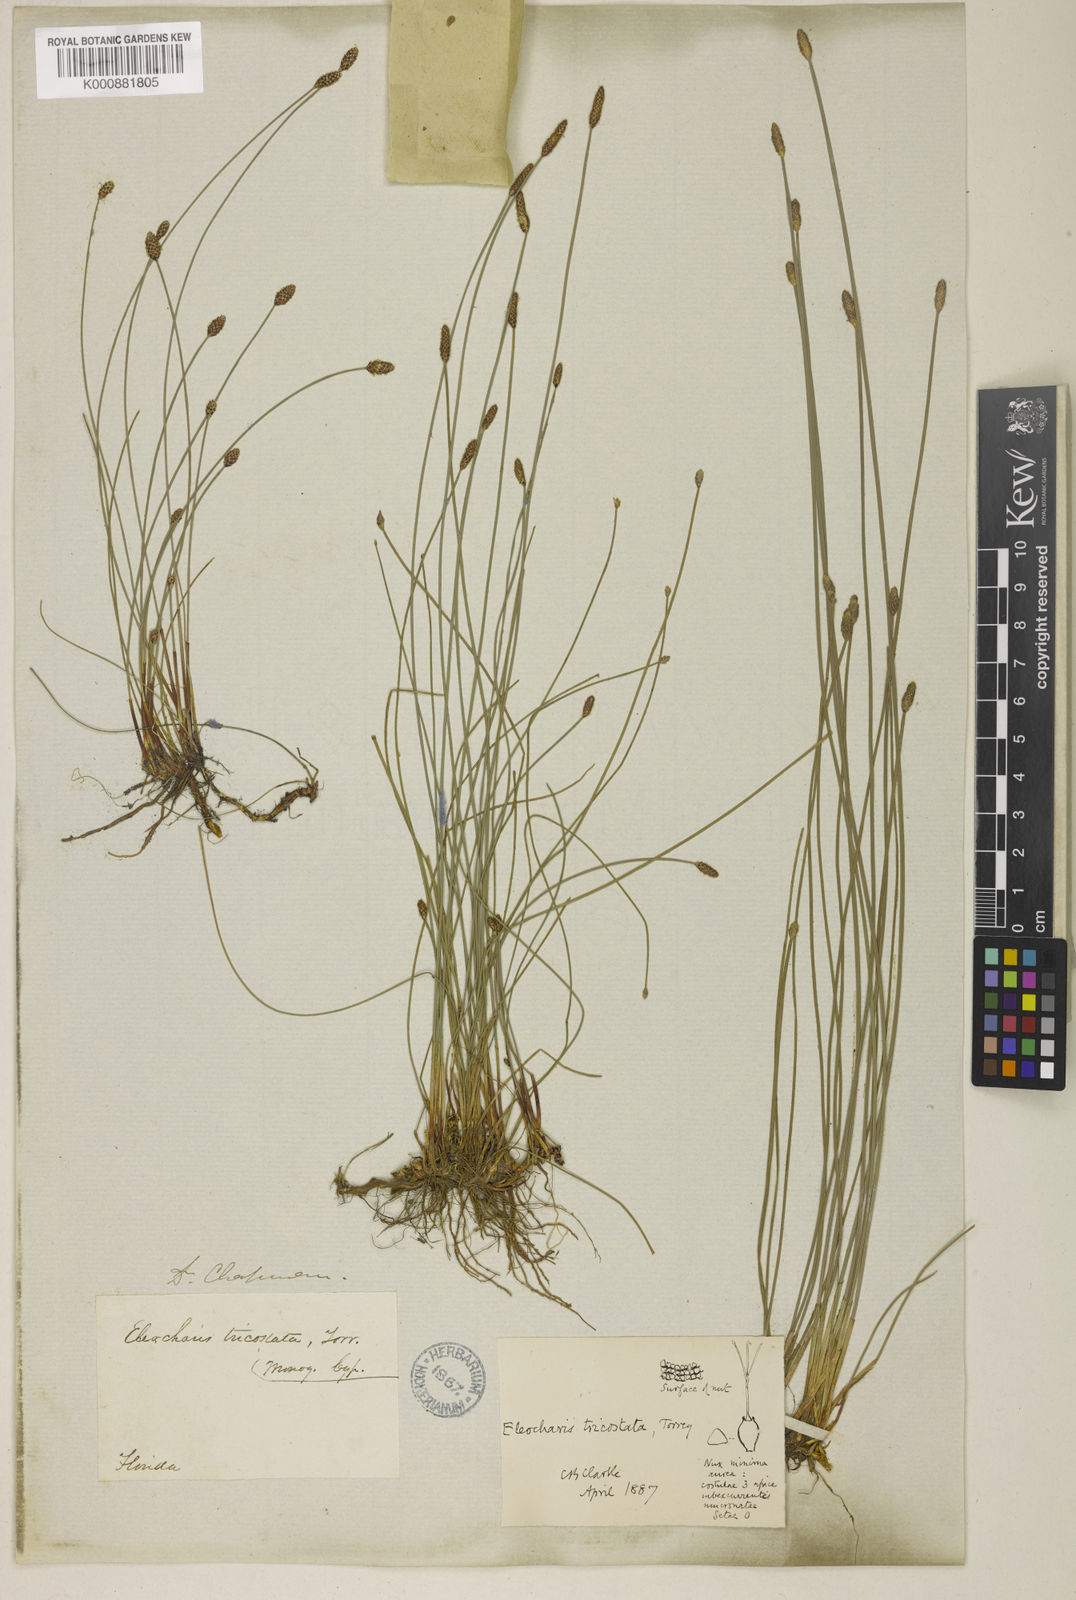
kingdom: Plantae
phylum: Tracheophyta
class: Liliopsida
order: Poales
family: Cyperaceae
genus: Eleocharis
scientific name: Eleocharis tricostata
